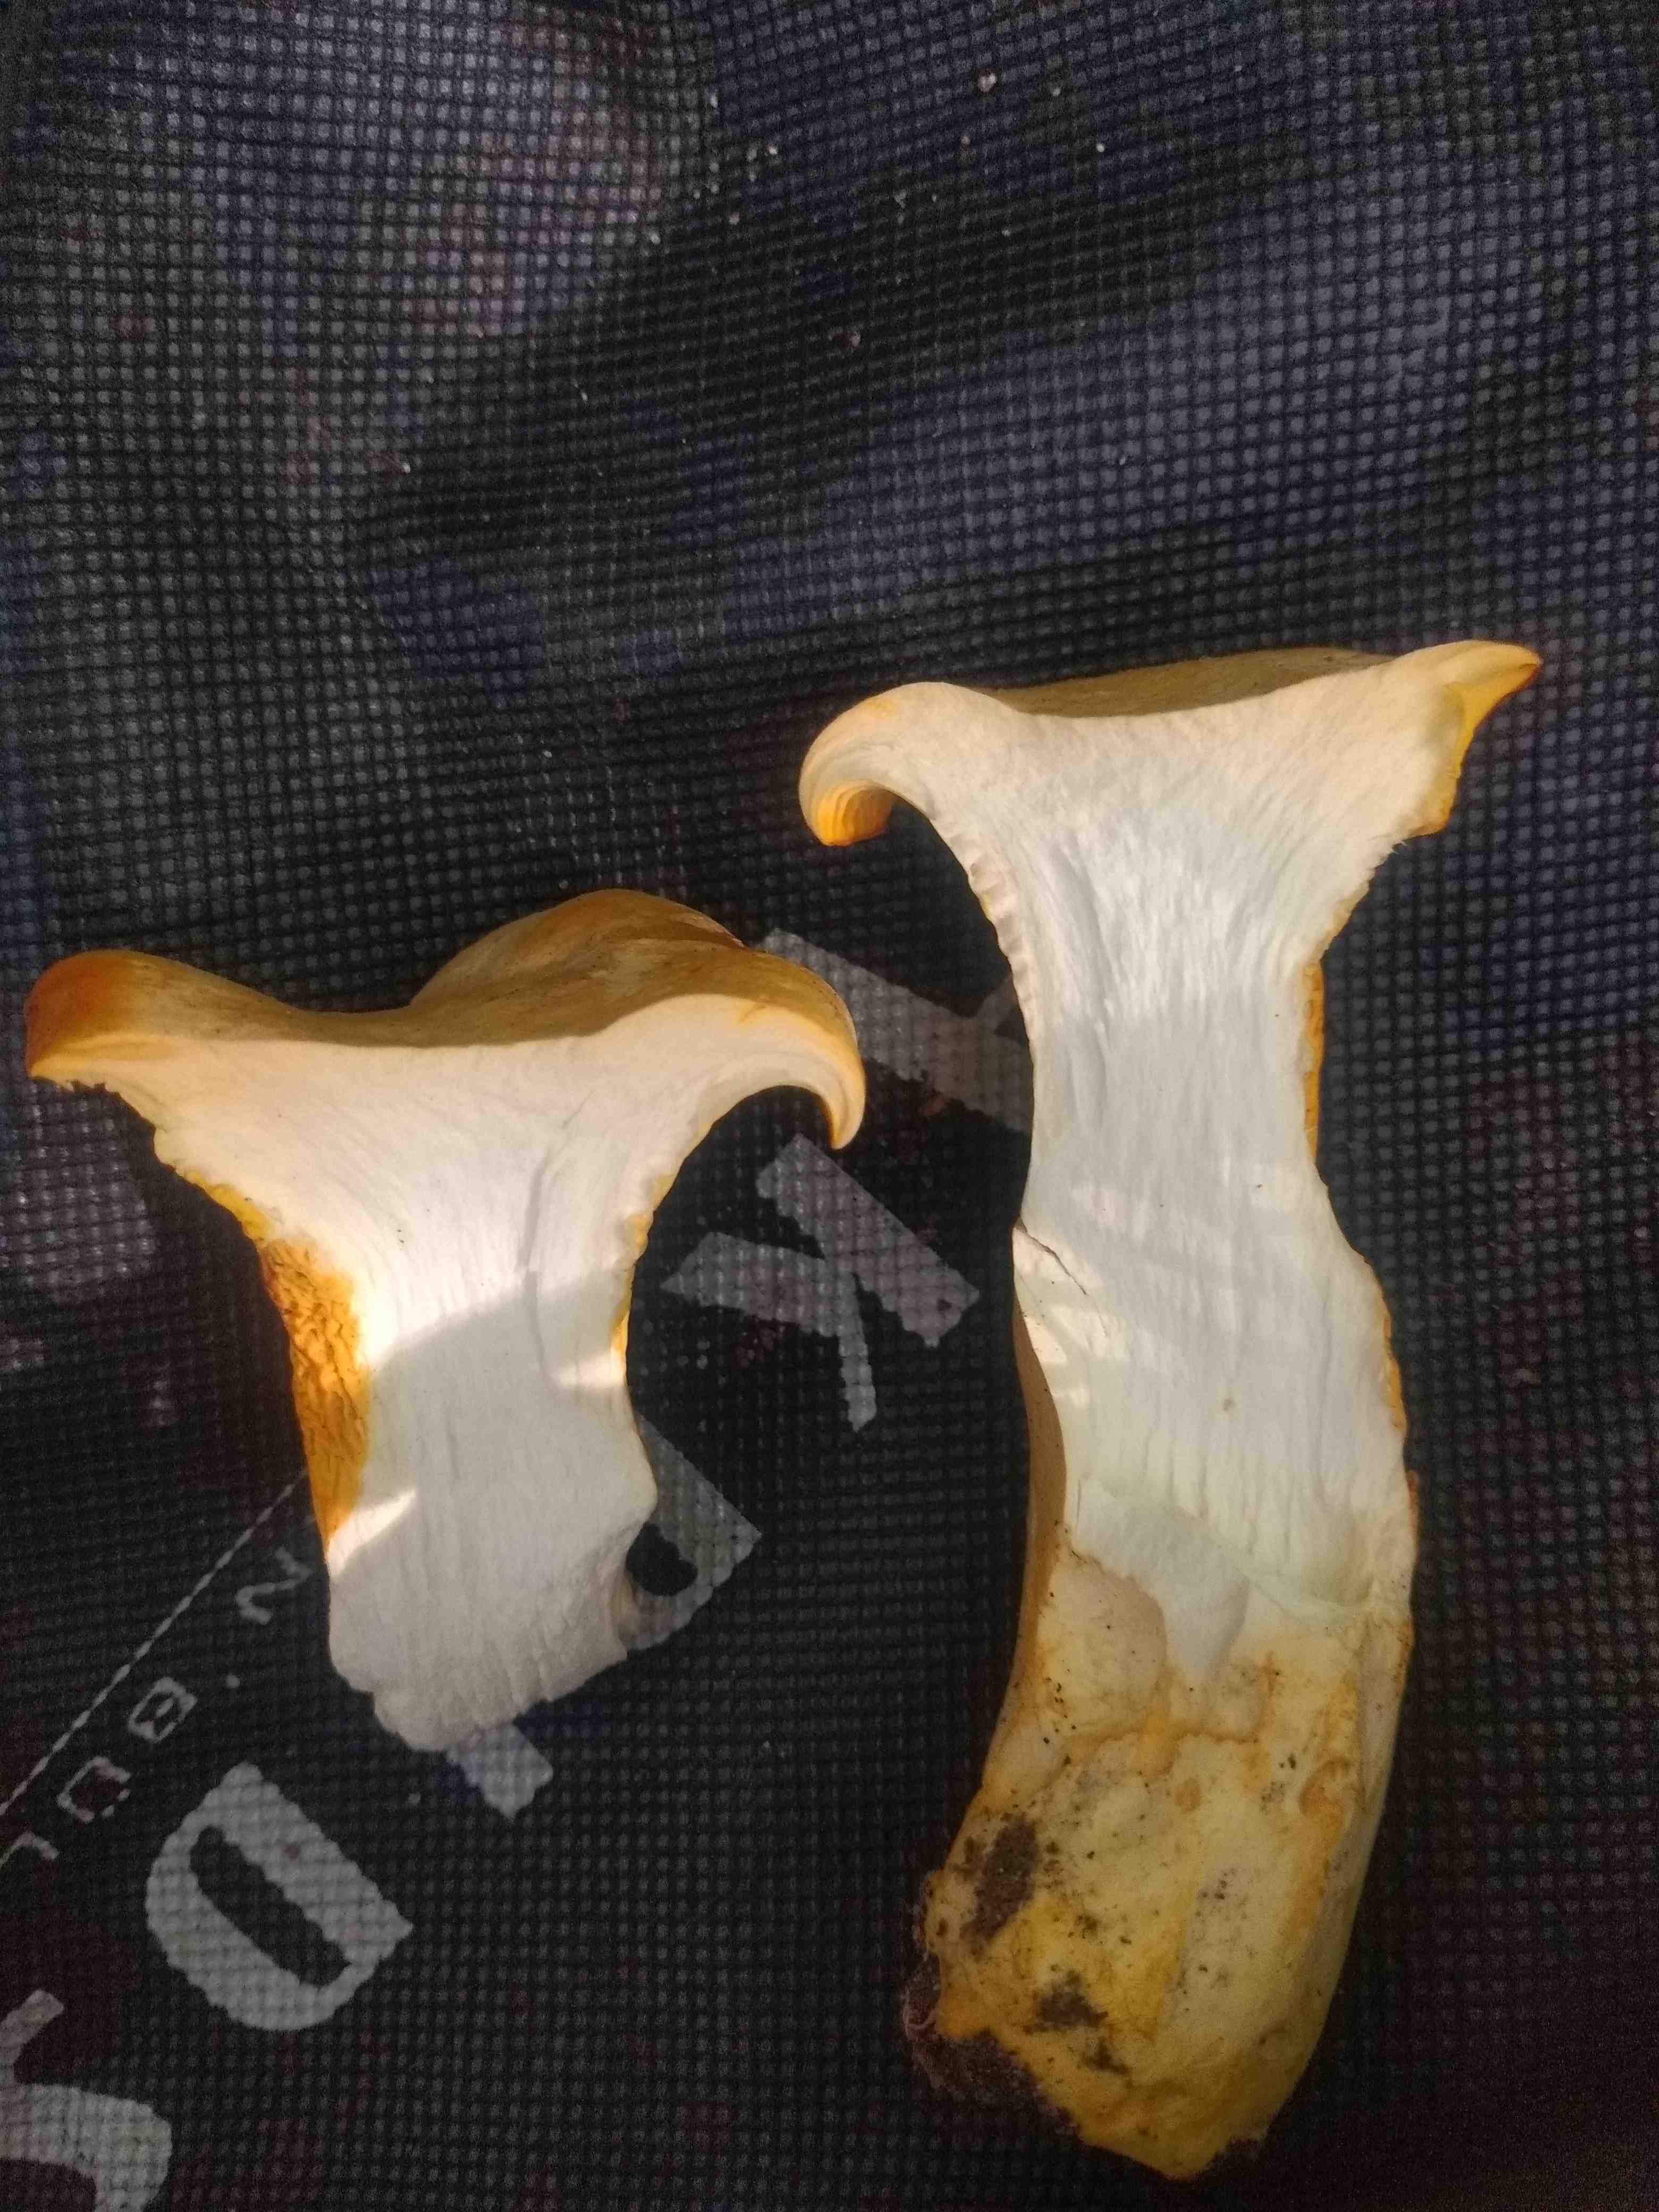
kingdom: Fungi
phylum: Basidiomycota
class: Agaricomycetes
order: Cantharellales
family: Hydnaceae
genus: Cantharellus
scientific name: Cantharellus
